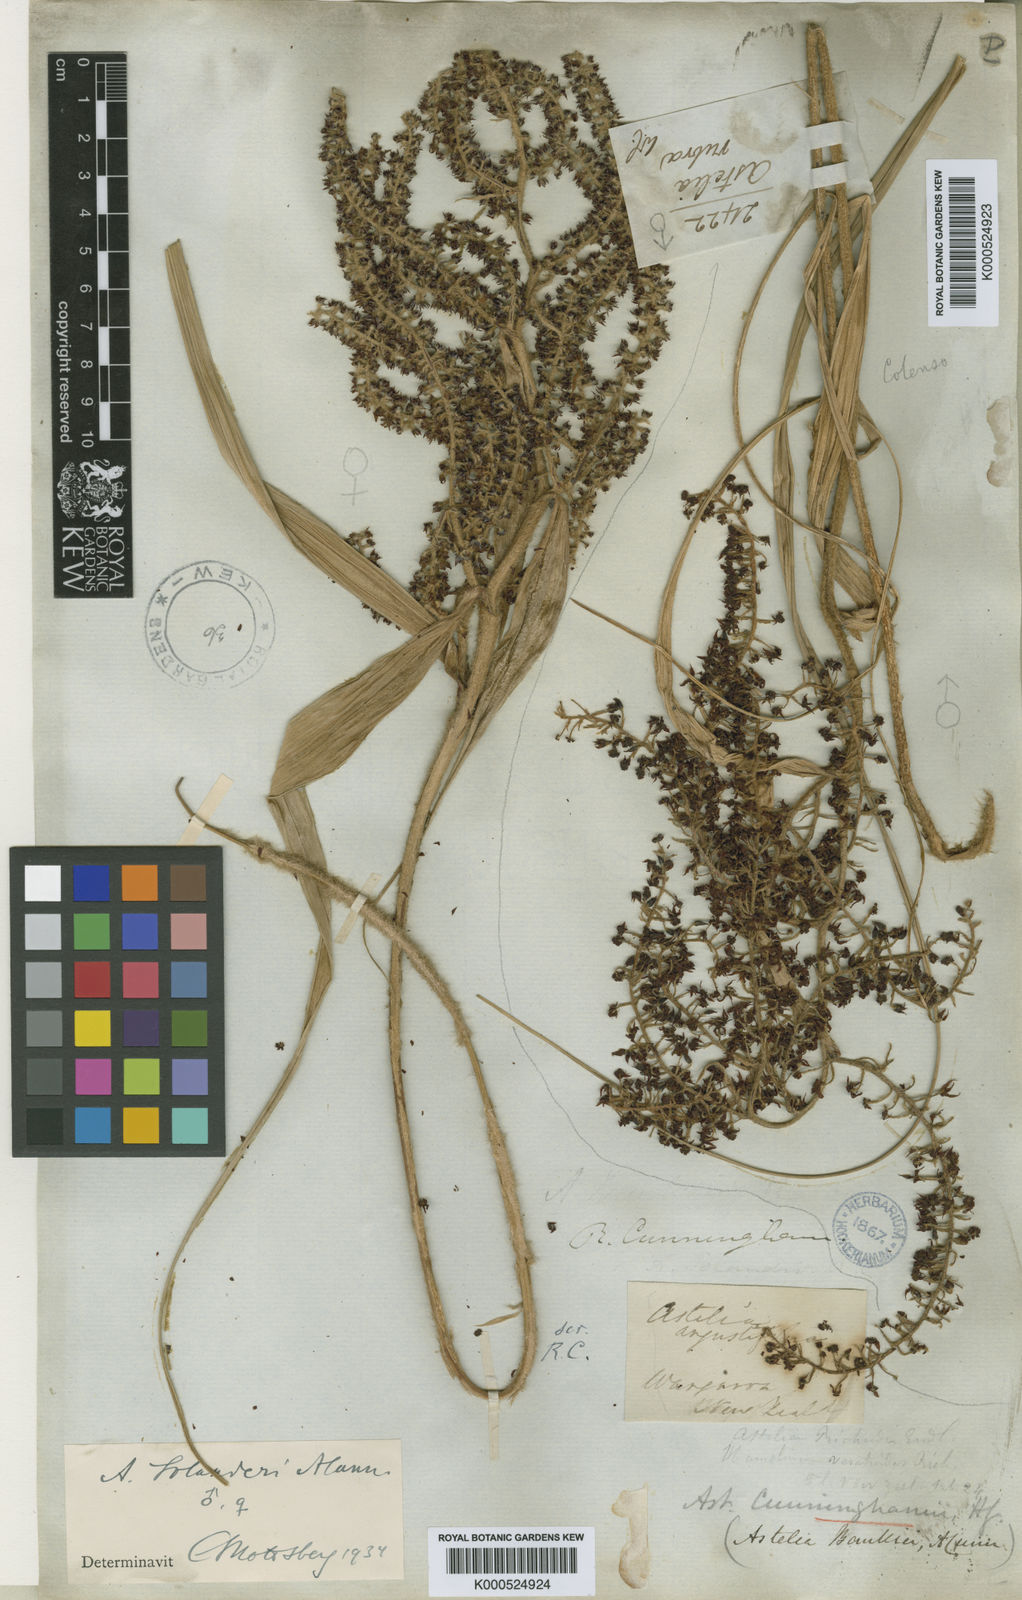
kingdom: Plantae
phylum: Tracheophyta
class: Liliopsida
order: Asparagales
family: Asteliaceae
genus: Astelia
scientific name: Astelia solandri
